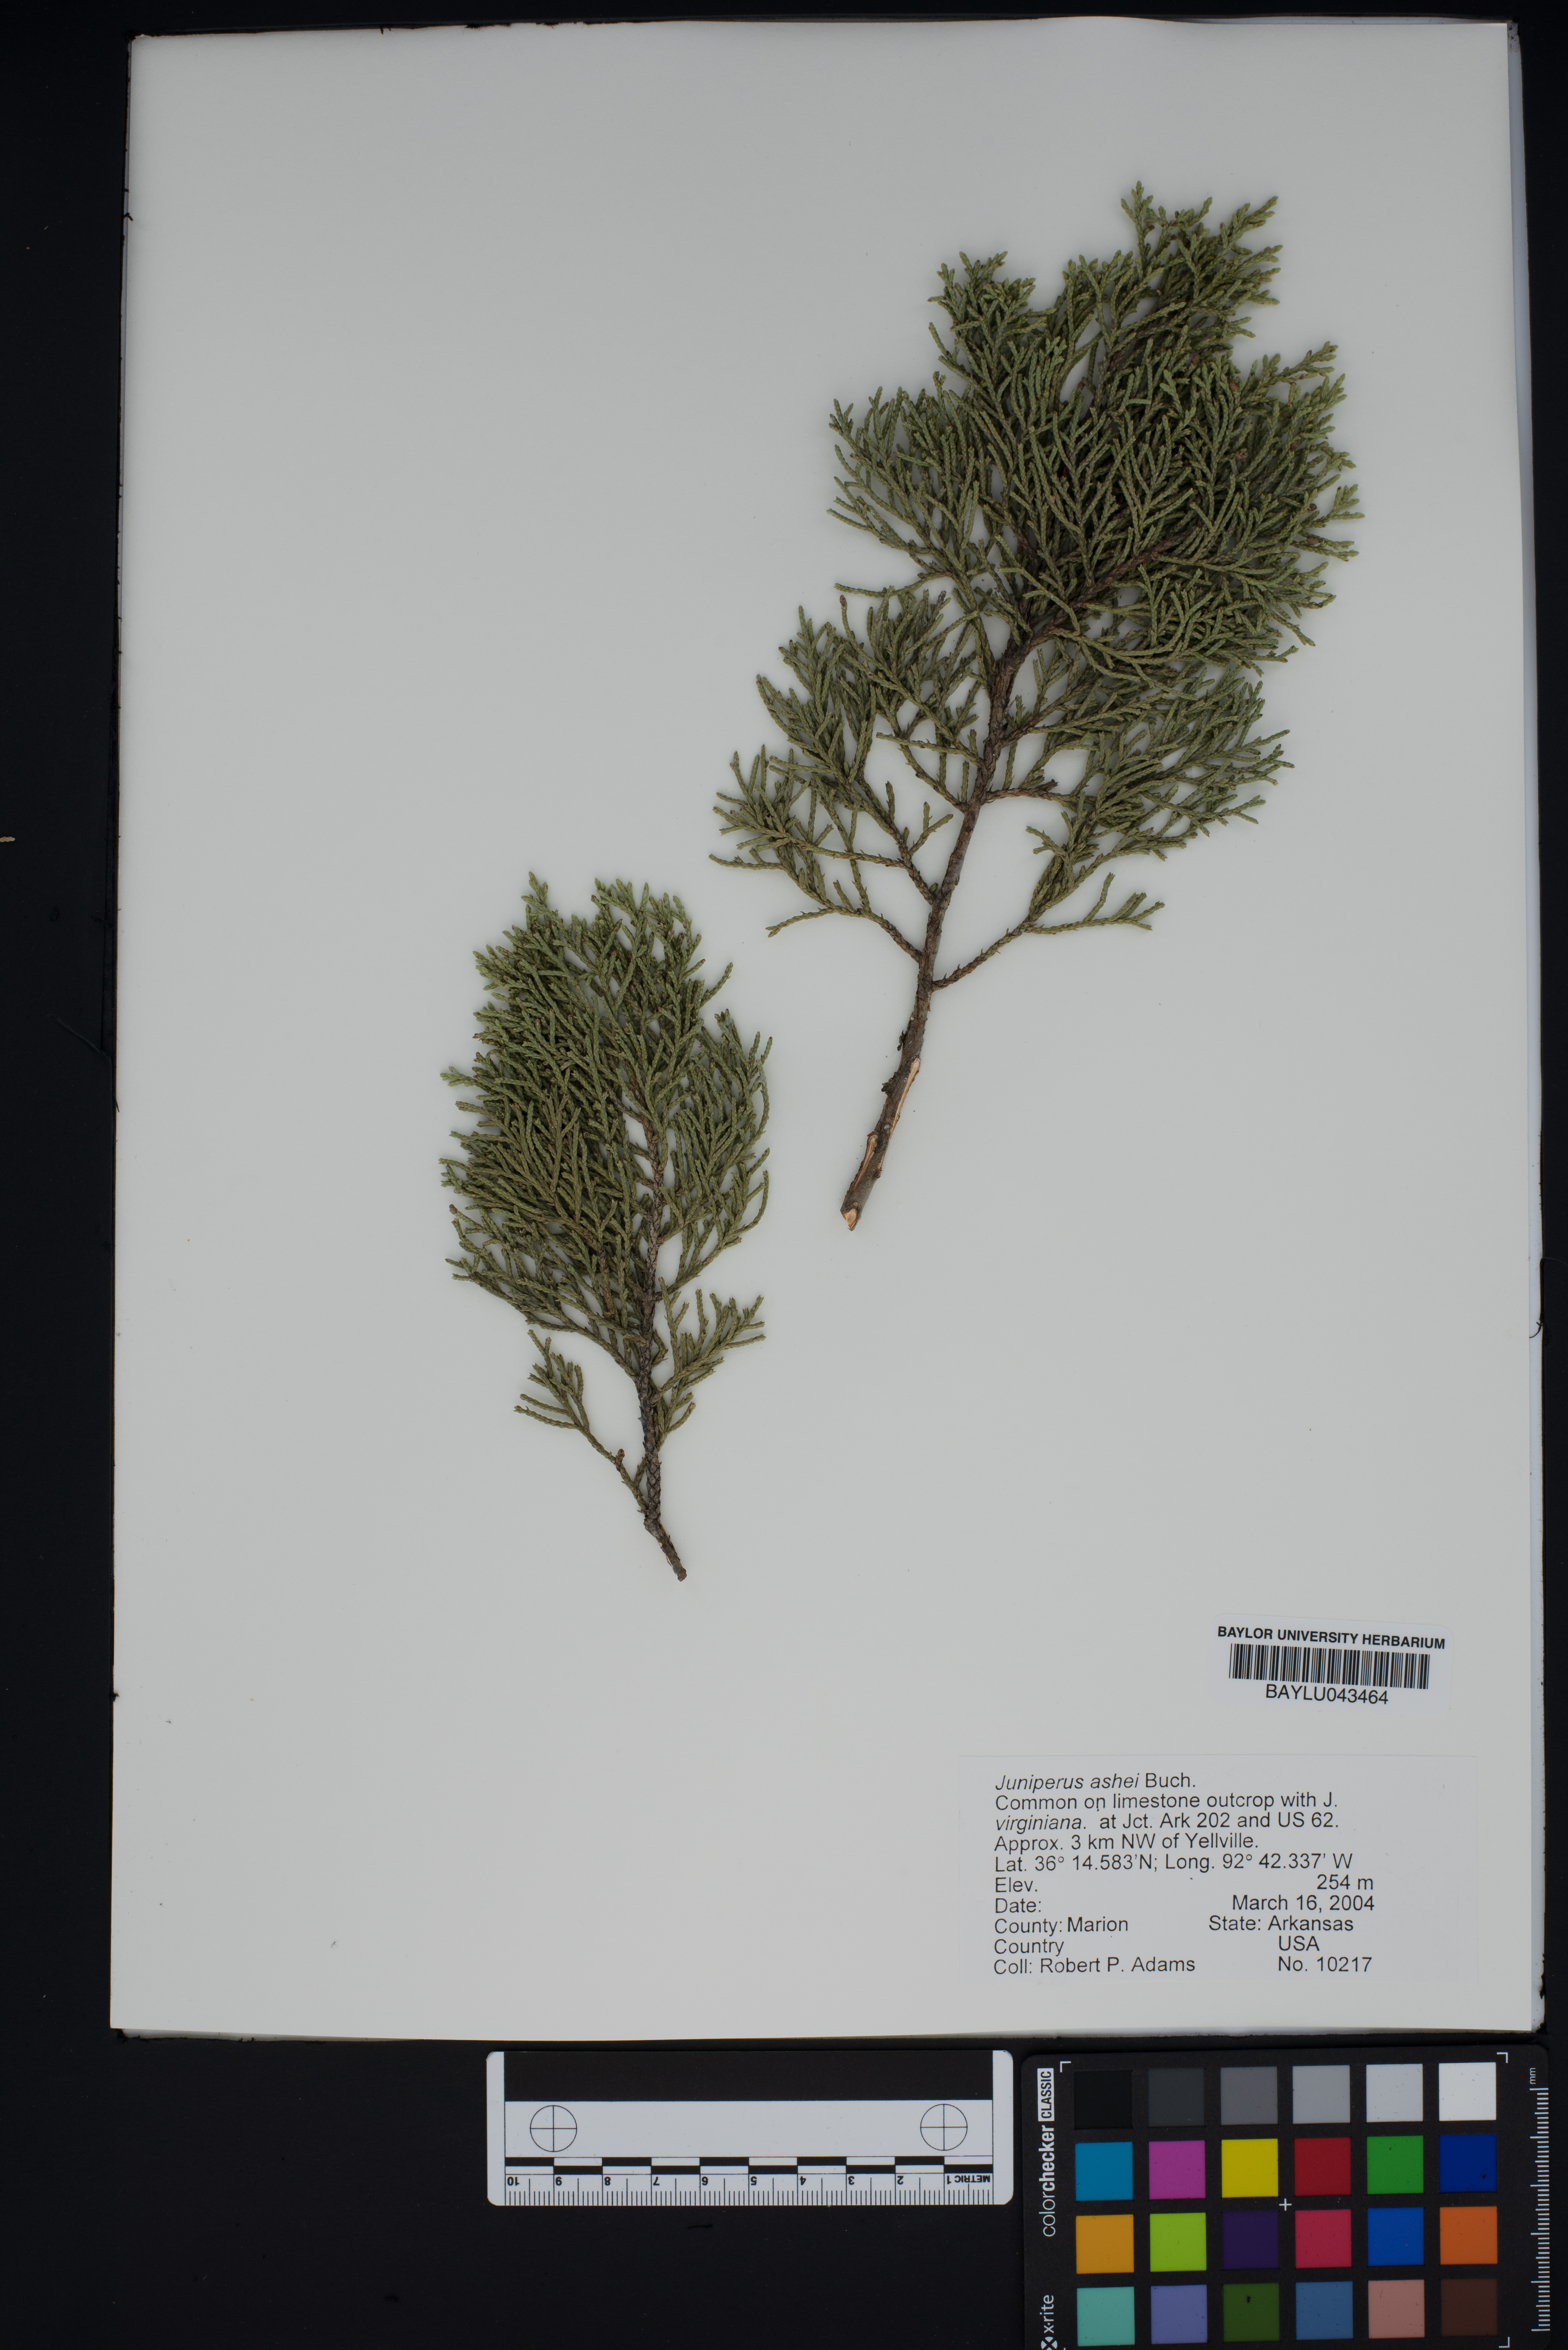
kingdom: Plantae
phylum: Tracheophyta
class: Pinopsida
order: Pinales
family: Cupressaceae
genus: Juniperus
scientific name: Juniperus ashei
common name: Mexican juniper
